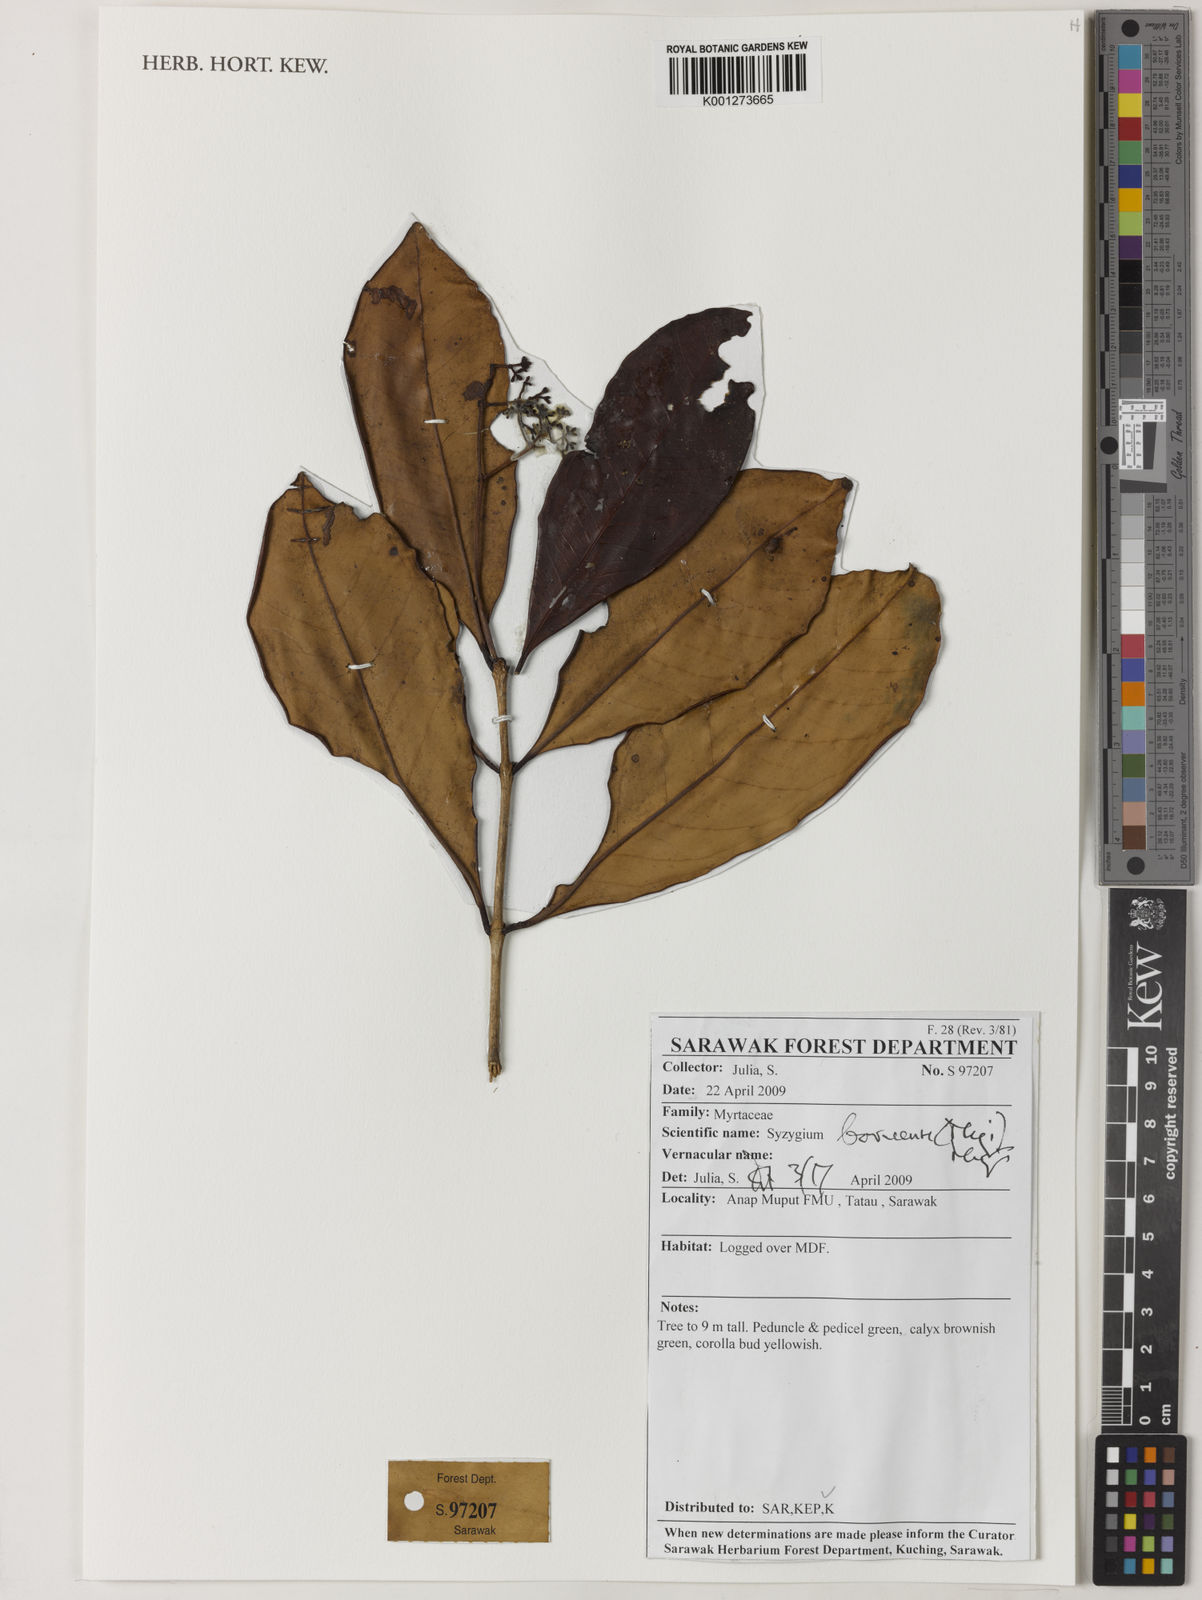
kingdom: Plantae
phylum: Tracheophyta
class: Magnoliopsida
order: Myrtales
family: Myrtaceae
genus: Syzygium
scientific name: Syzygium borneense
